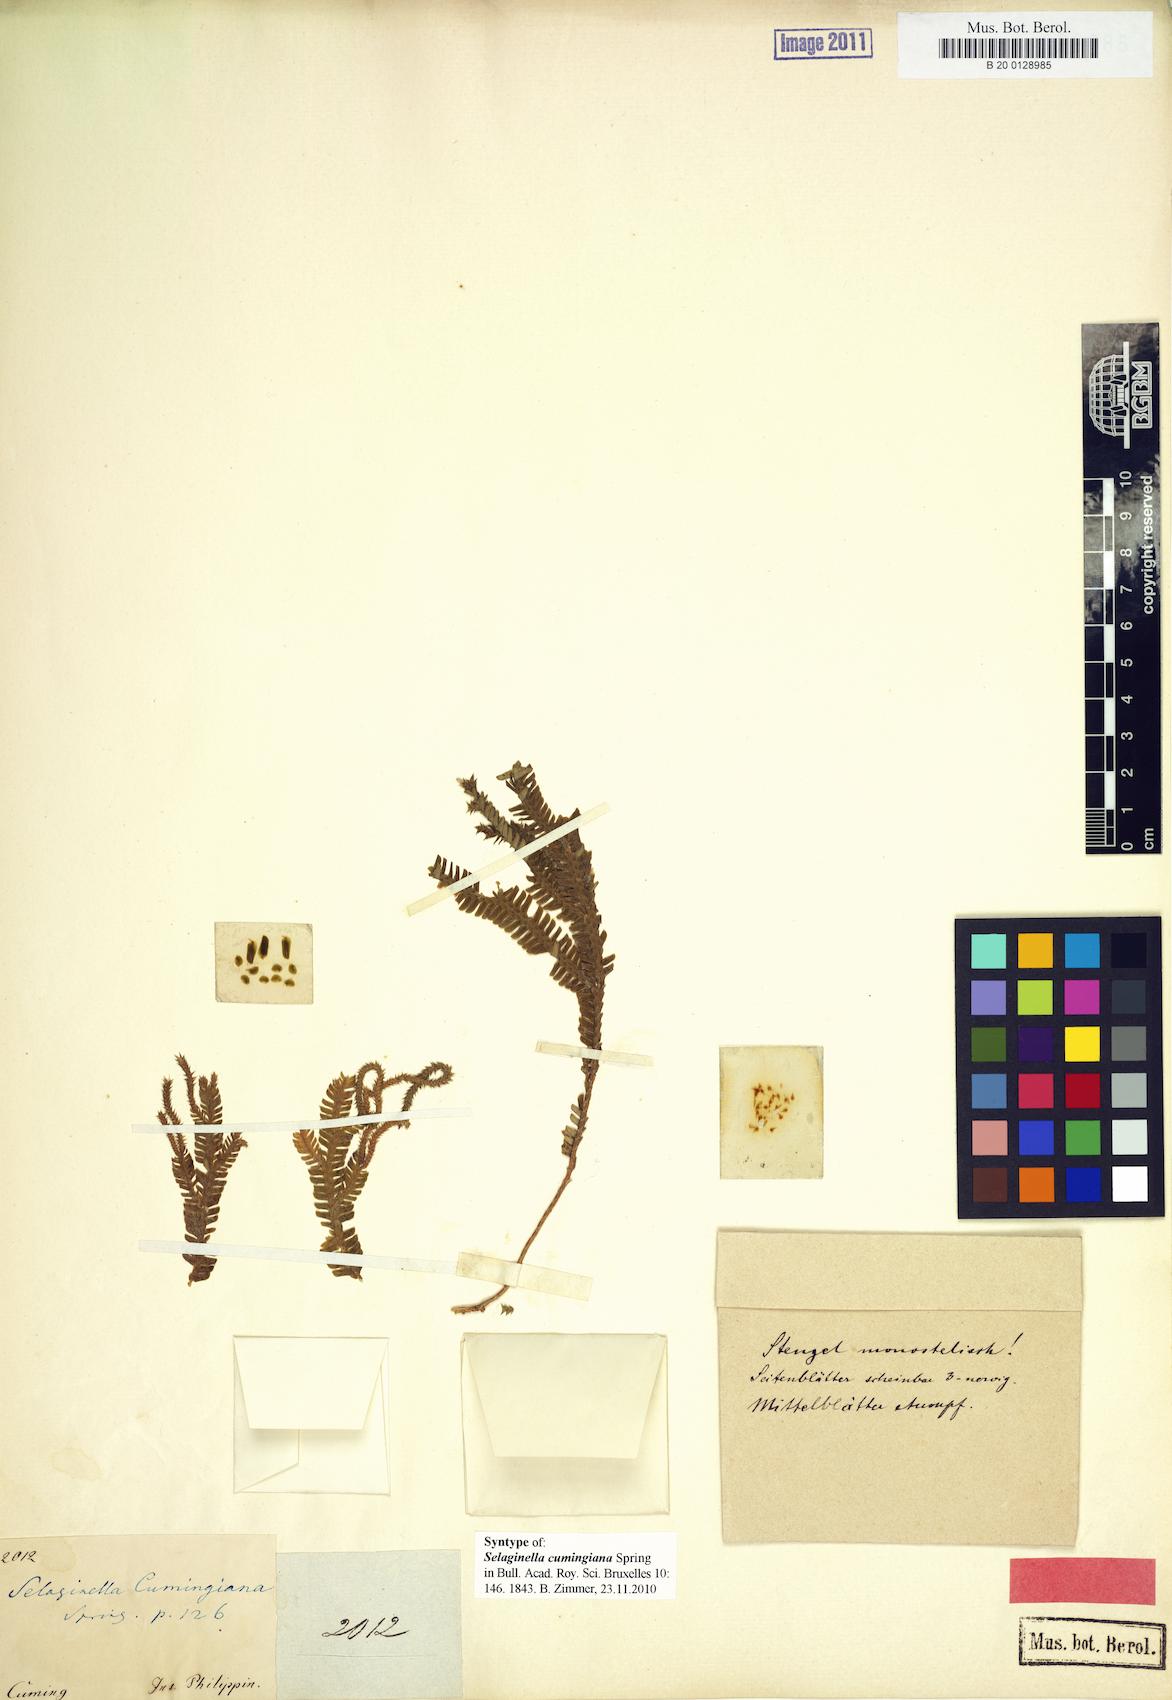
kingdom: Plantae
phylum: Tracheophyta
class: Lycopodiopsida
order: Selaginellales
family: Selaginellaceae
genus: Selaginella
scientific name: Selaginella cumingiana
